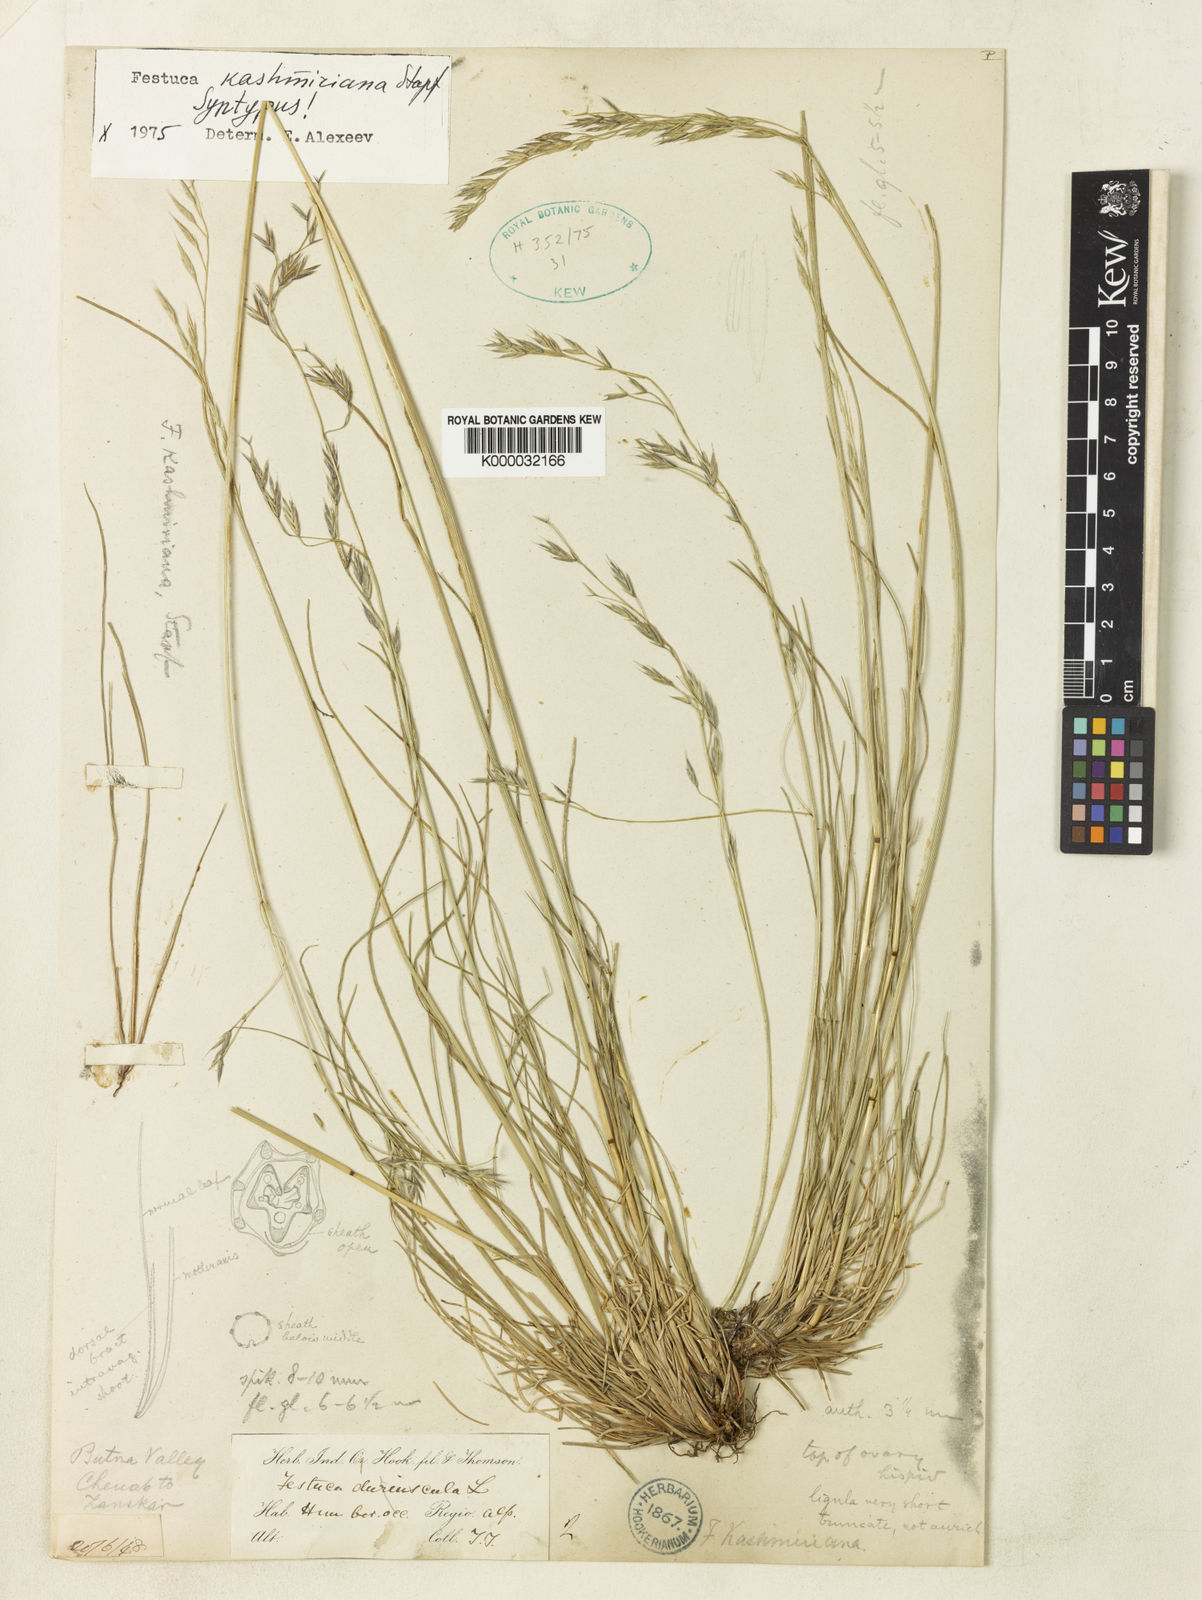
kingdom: Plantae
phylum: Tracheophyta
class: Liliopsida
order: Poales
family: Poaceae
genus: Festuca
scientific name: Festuca kashmiriana
